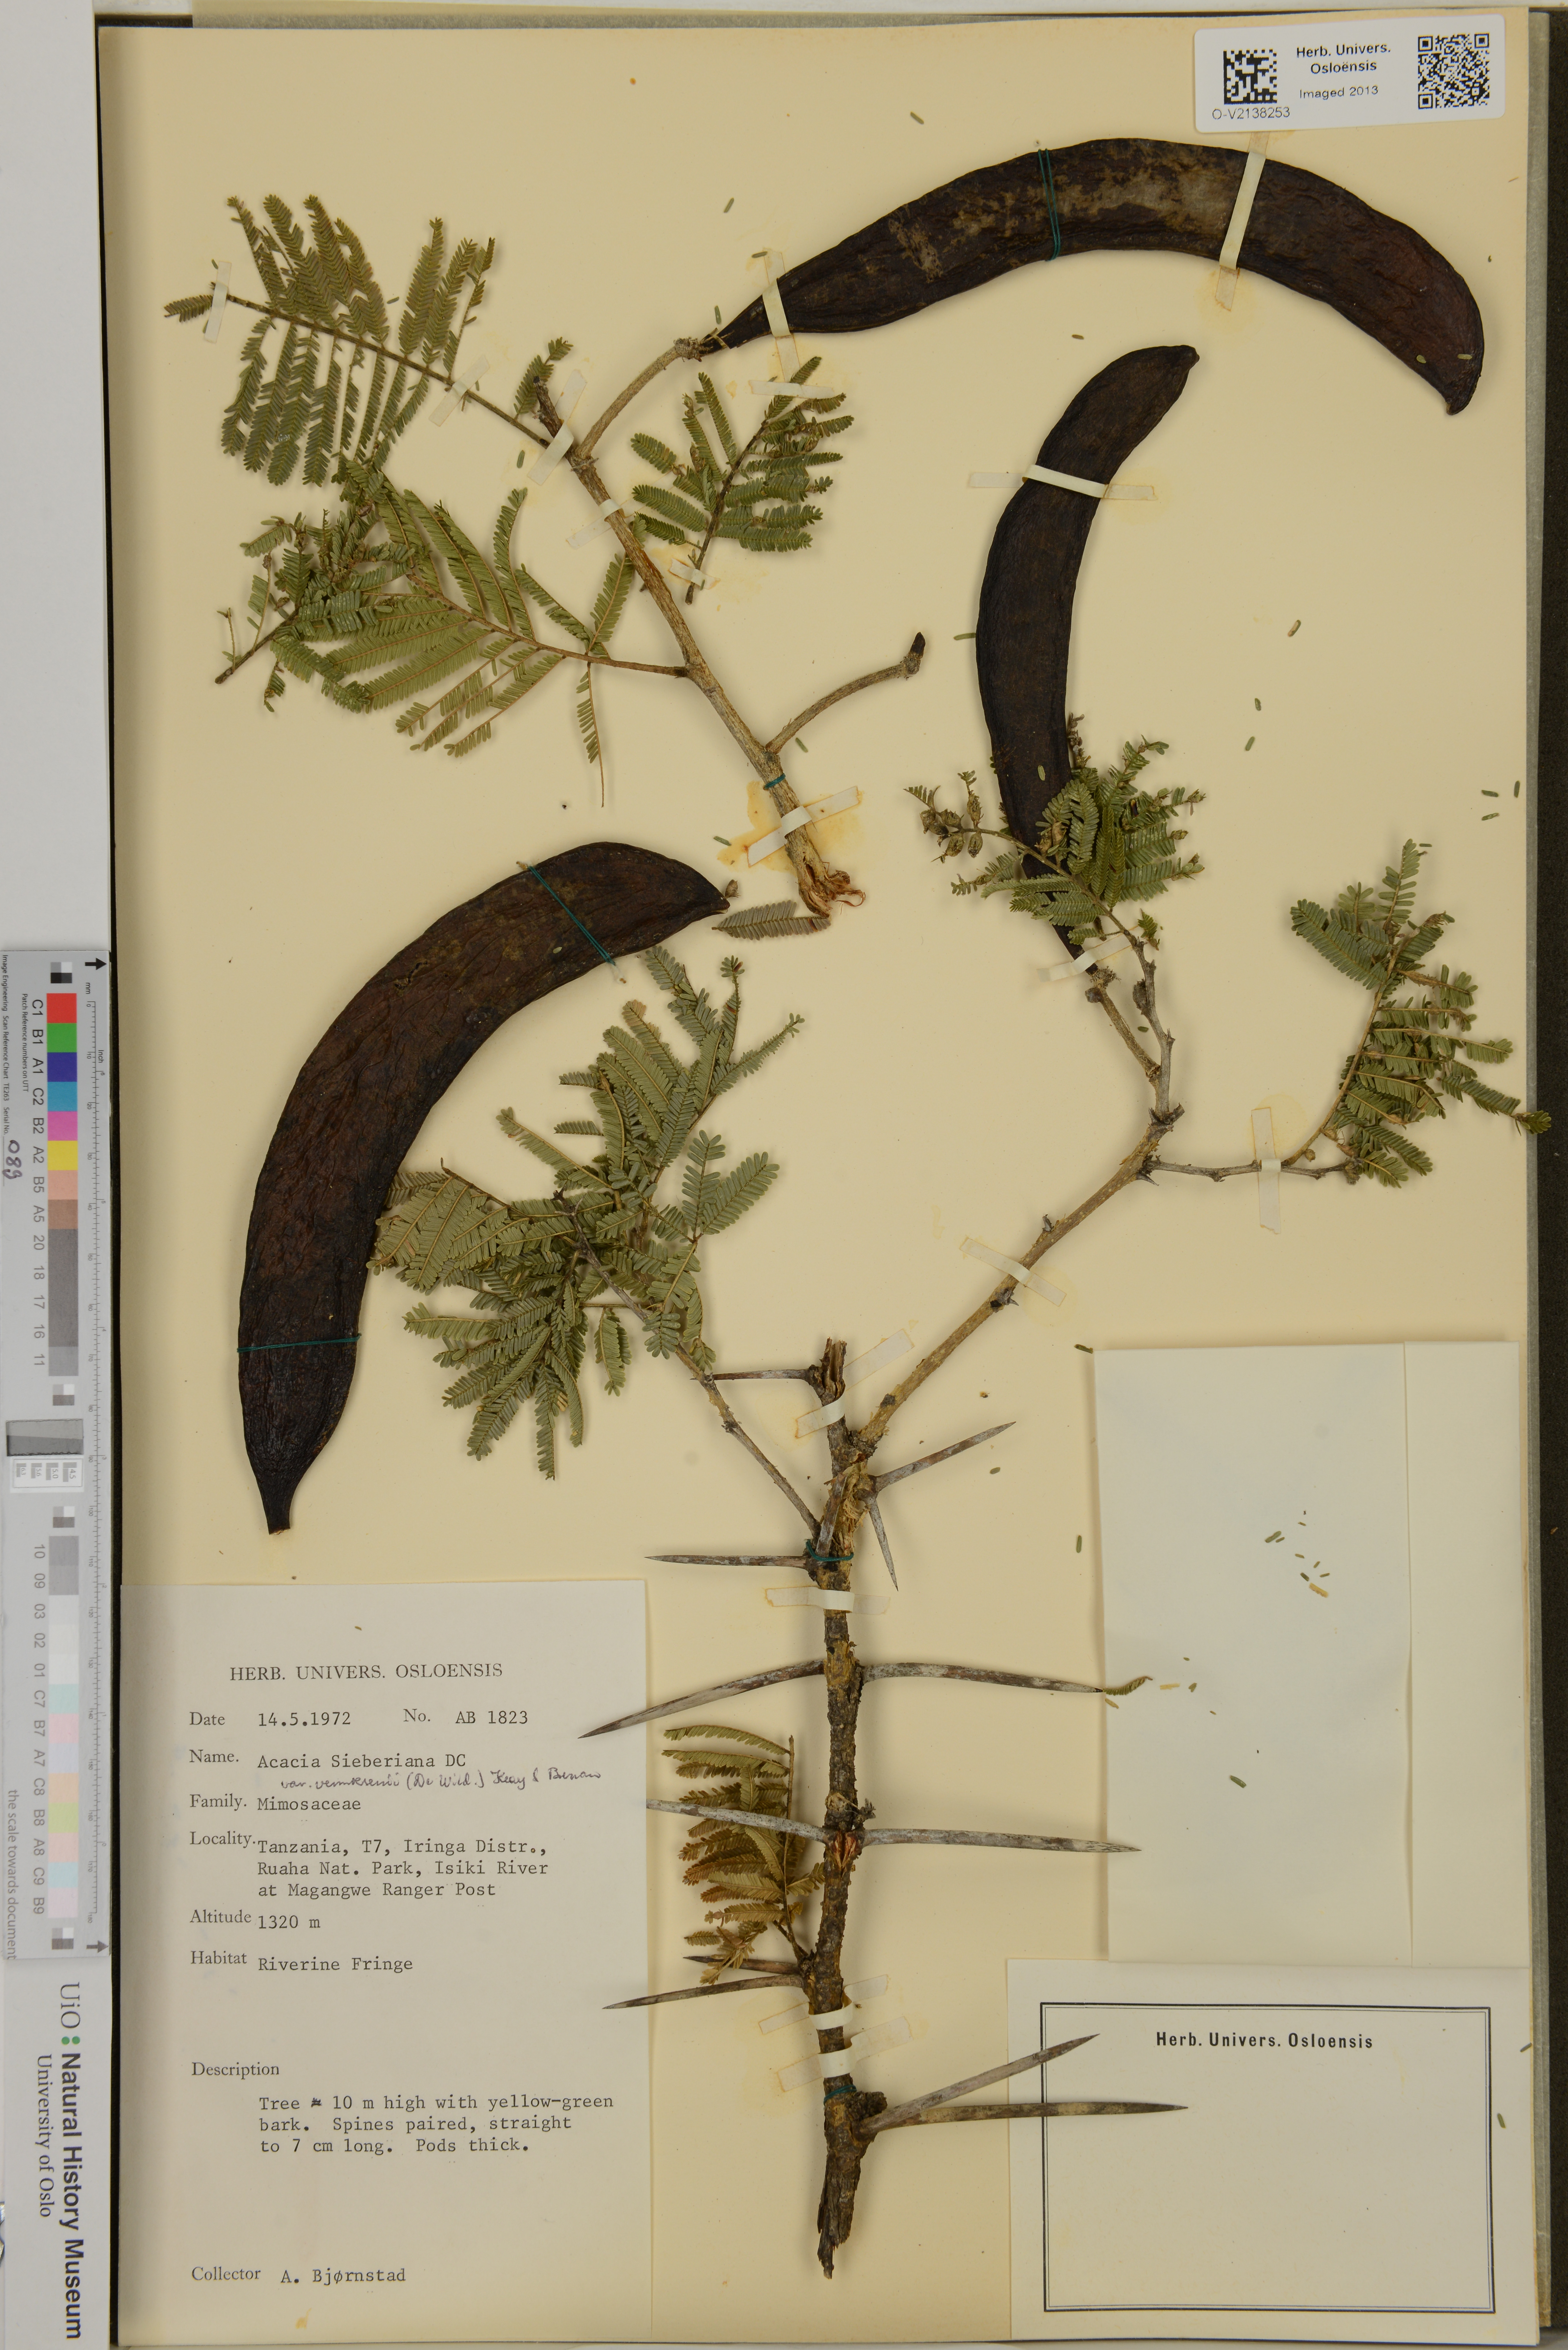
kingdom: Plantae
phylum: Tracheophyta
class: Magnoliopsida
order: Fabales
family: Fabaceae
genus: Acacia
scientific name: Acacia
